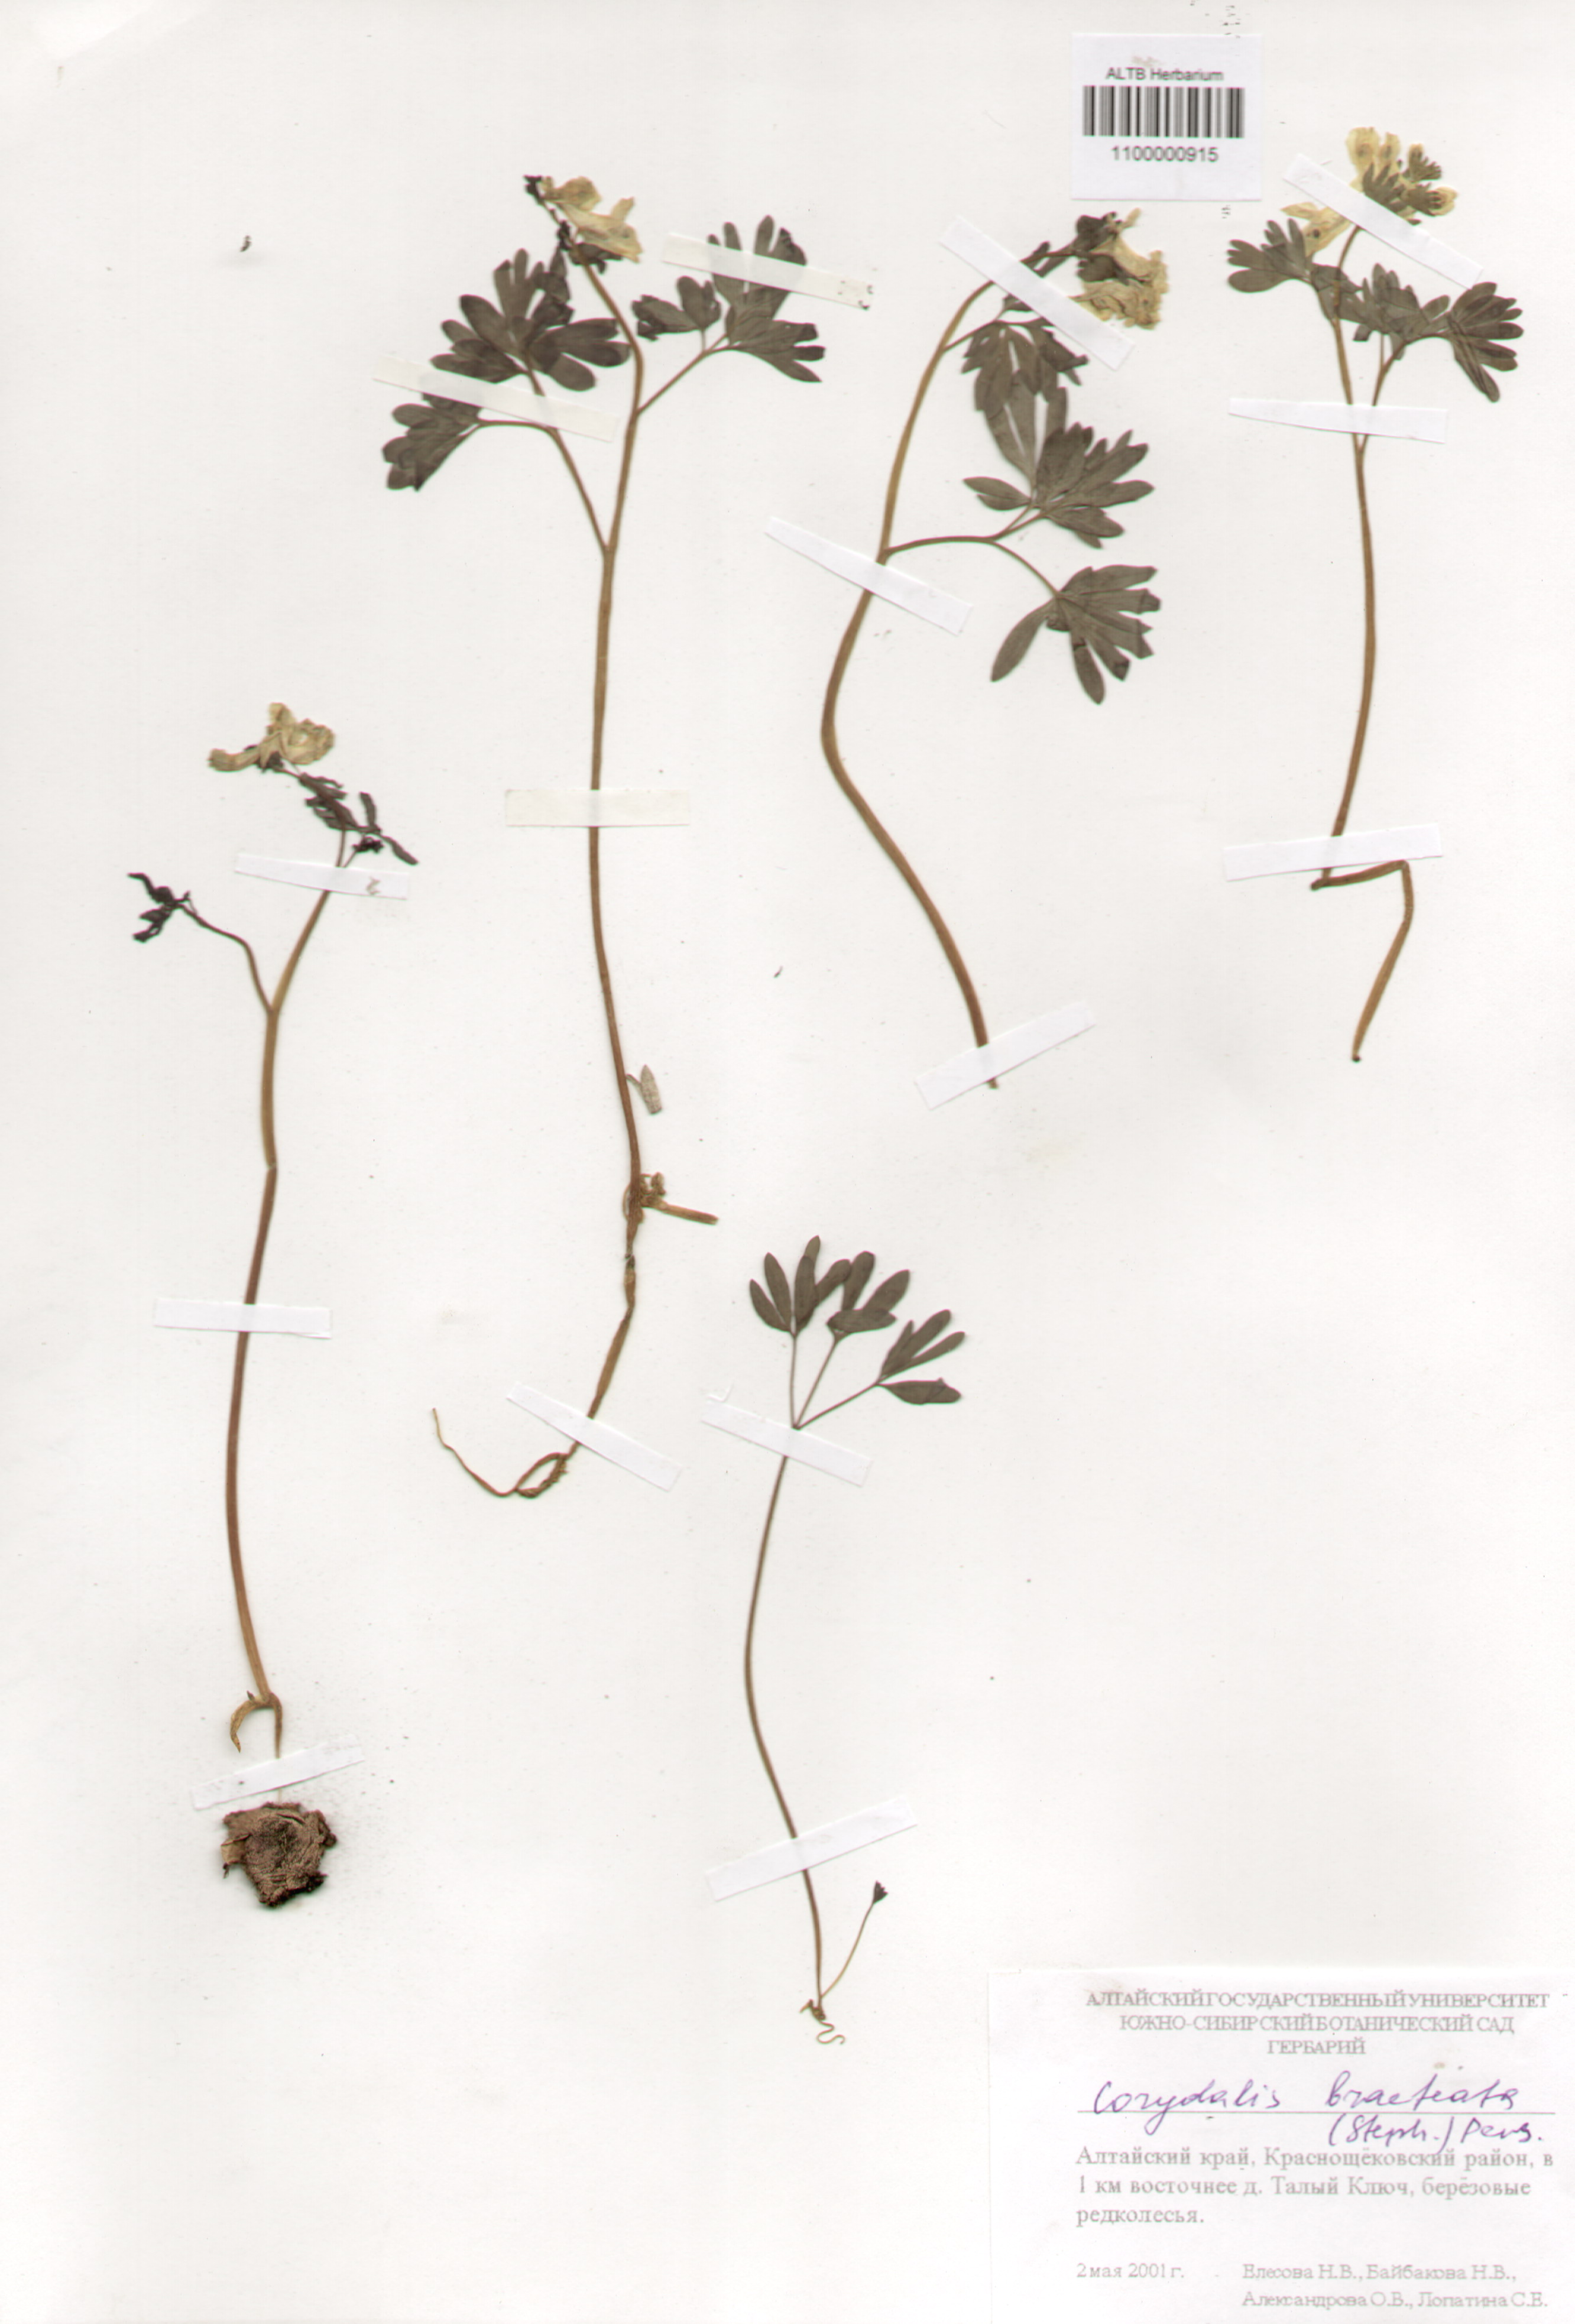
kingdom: Plantae
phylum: Tracheophyta
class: Magnoliopsida
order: Ranunculales
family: Papaveraceae
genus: Corydalis
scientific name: Corydalis bracteata
